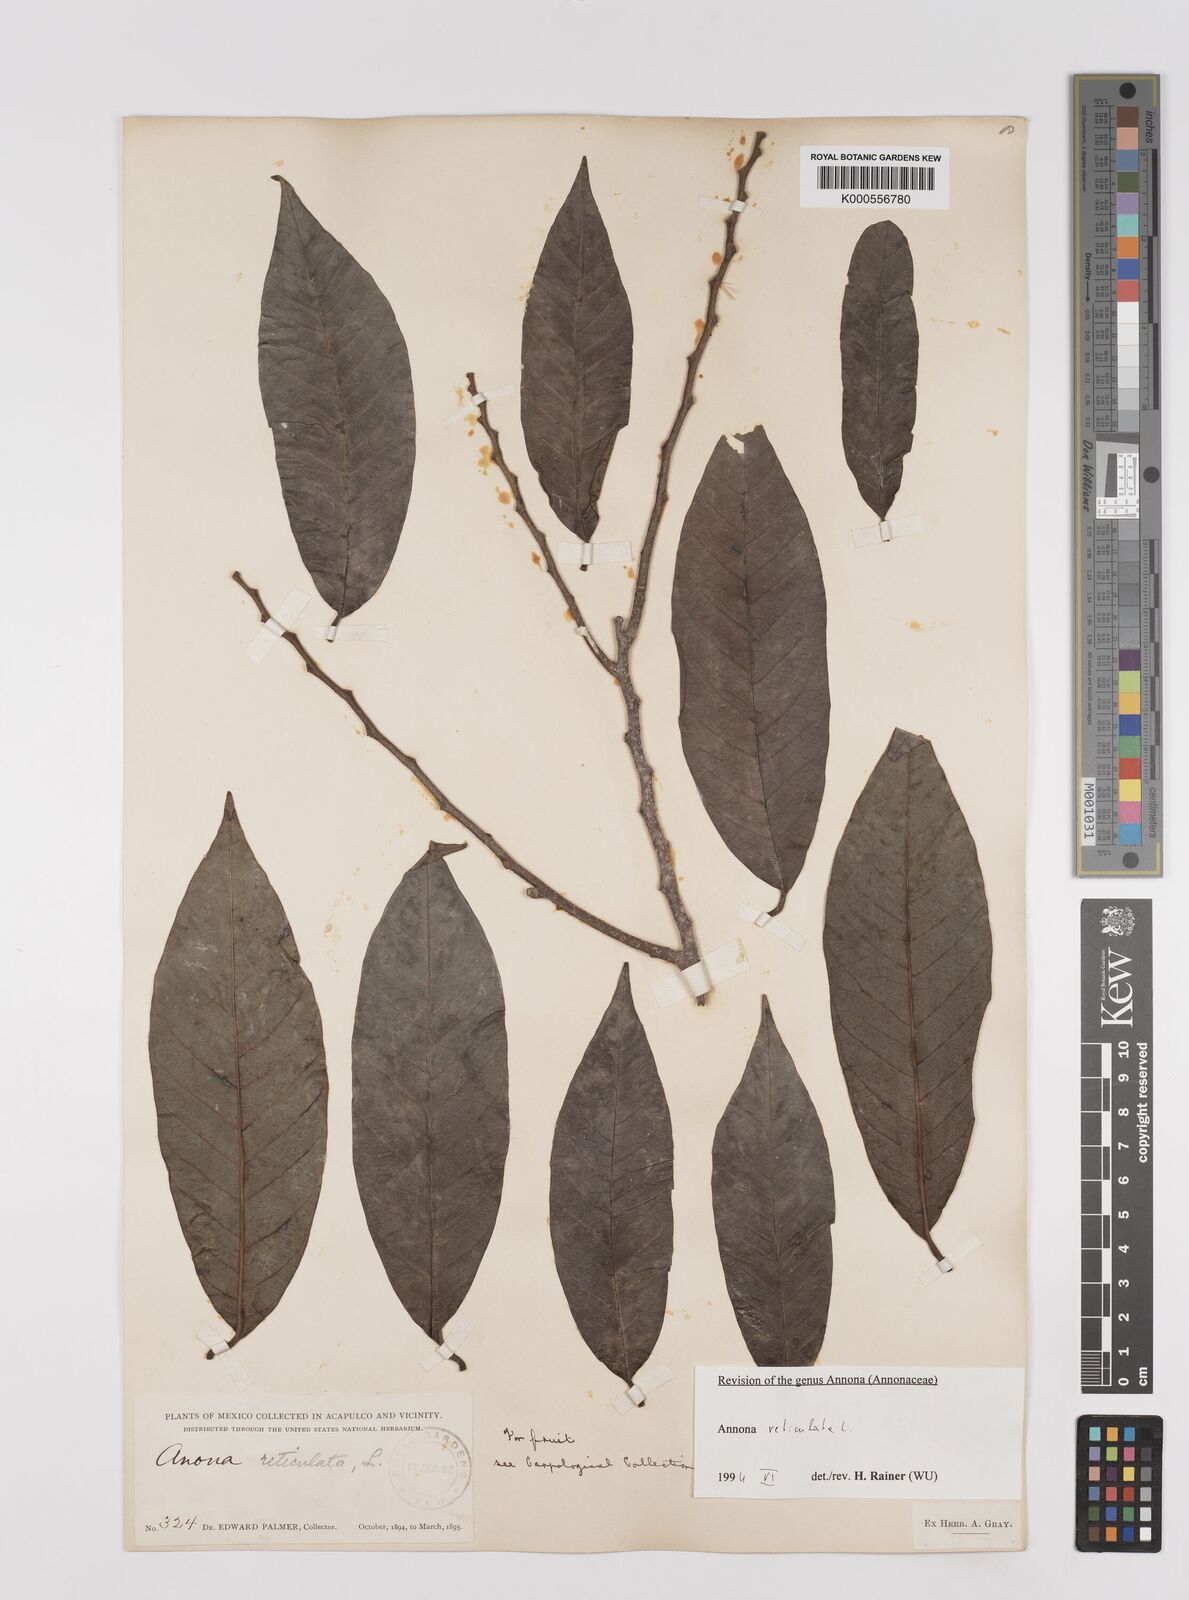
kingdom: Plantae
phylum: Tracheophyta
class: Magnoliopsida
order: Magnoliales
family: Annonaceae
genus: Annona
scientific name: Annona reticulata
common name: Custard apple
